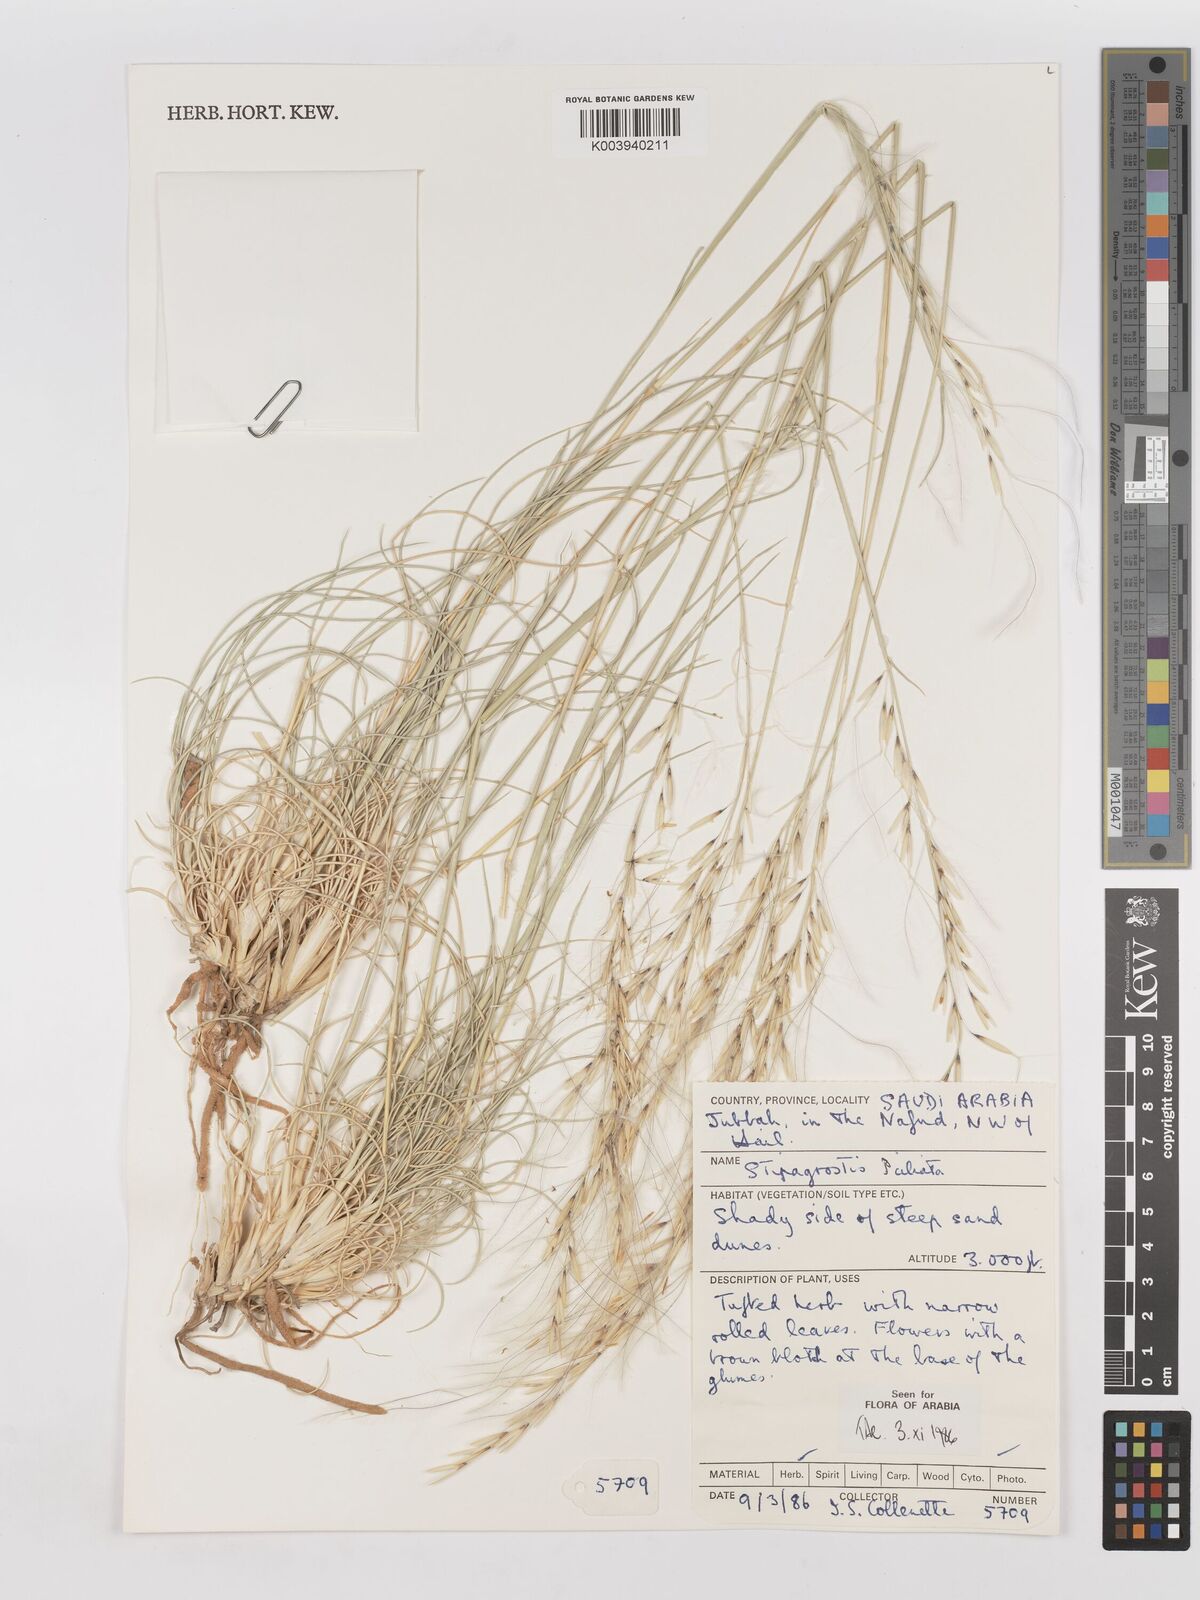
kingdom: Plantae
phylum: Tracheophyta
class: Liliopsida
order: Poales
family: Poaceae
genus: Stipagrostis
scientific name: Stipagrostis ciliata
